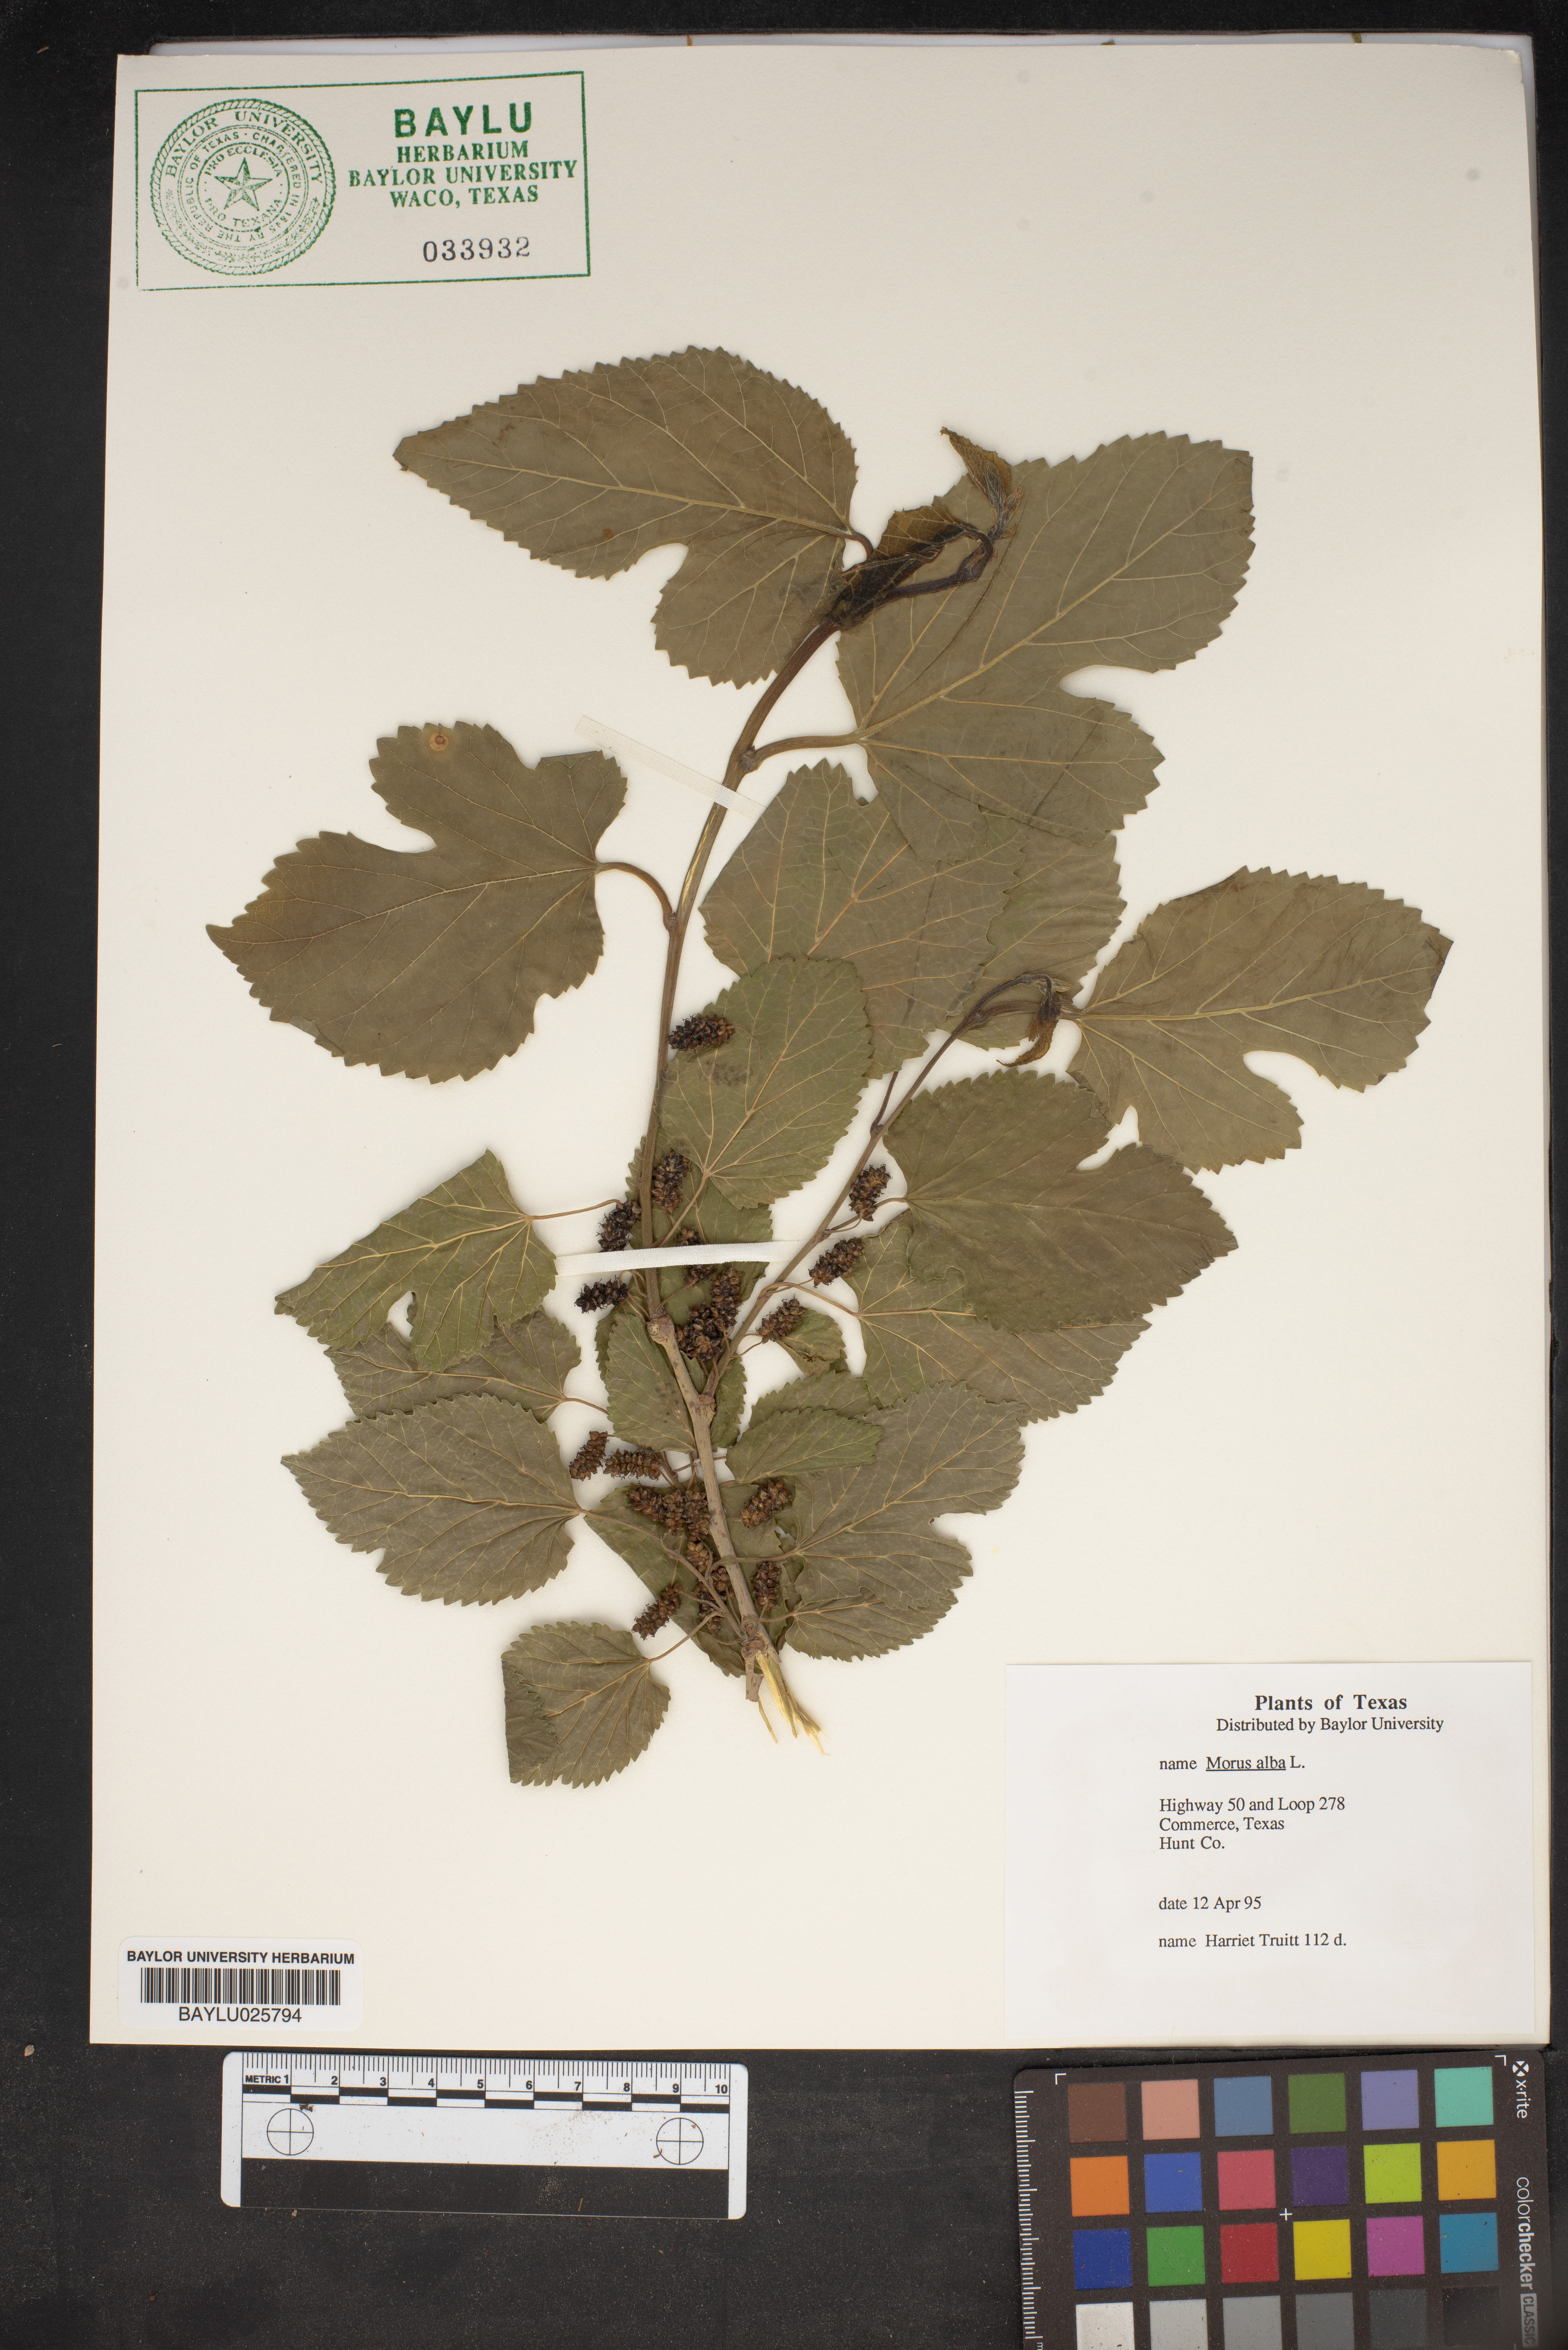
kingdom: Plantae
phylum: Tracheophyta
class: Magnoliopsida
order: Rosales
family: Moraceae
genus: Morus
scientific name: Morus alba
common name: White mulberry
